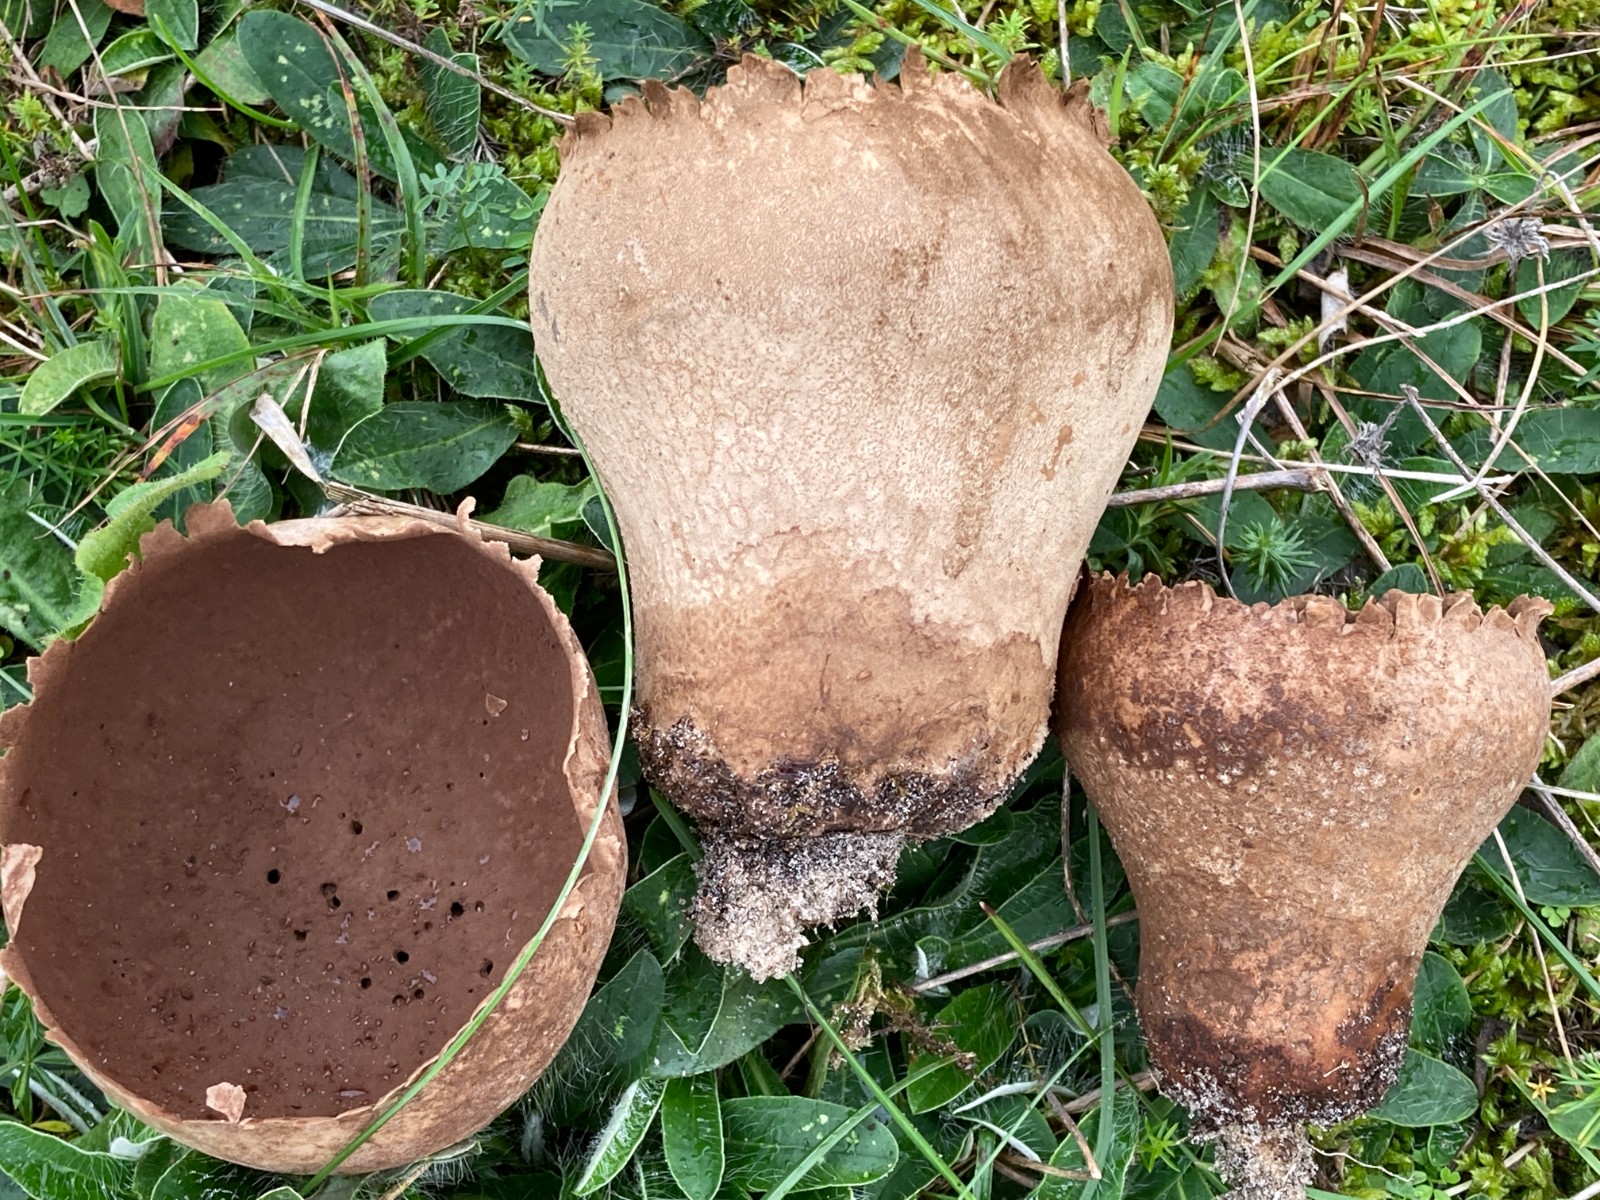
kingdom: Fungi
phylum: Basidiomycota
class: Agaricomycetes
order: Agaricales
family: Lycoperdaceae
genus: Bovistella
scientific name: Bovistella utriformis
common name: skællet støvbold
